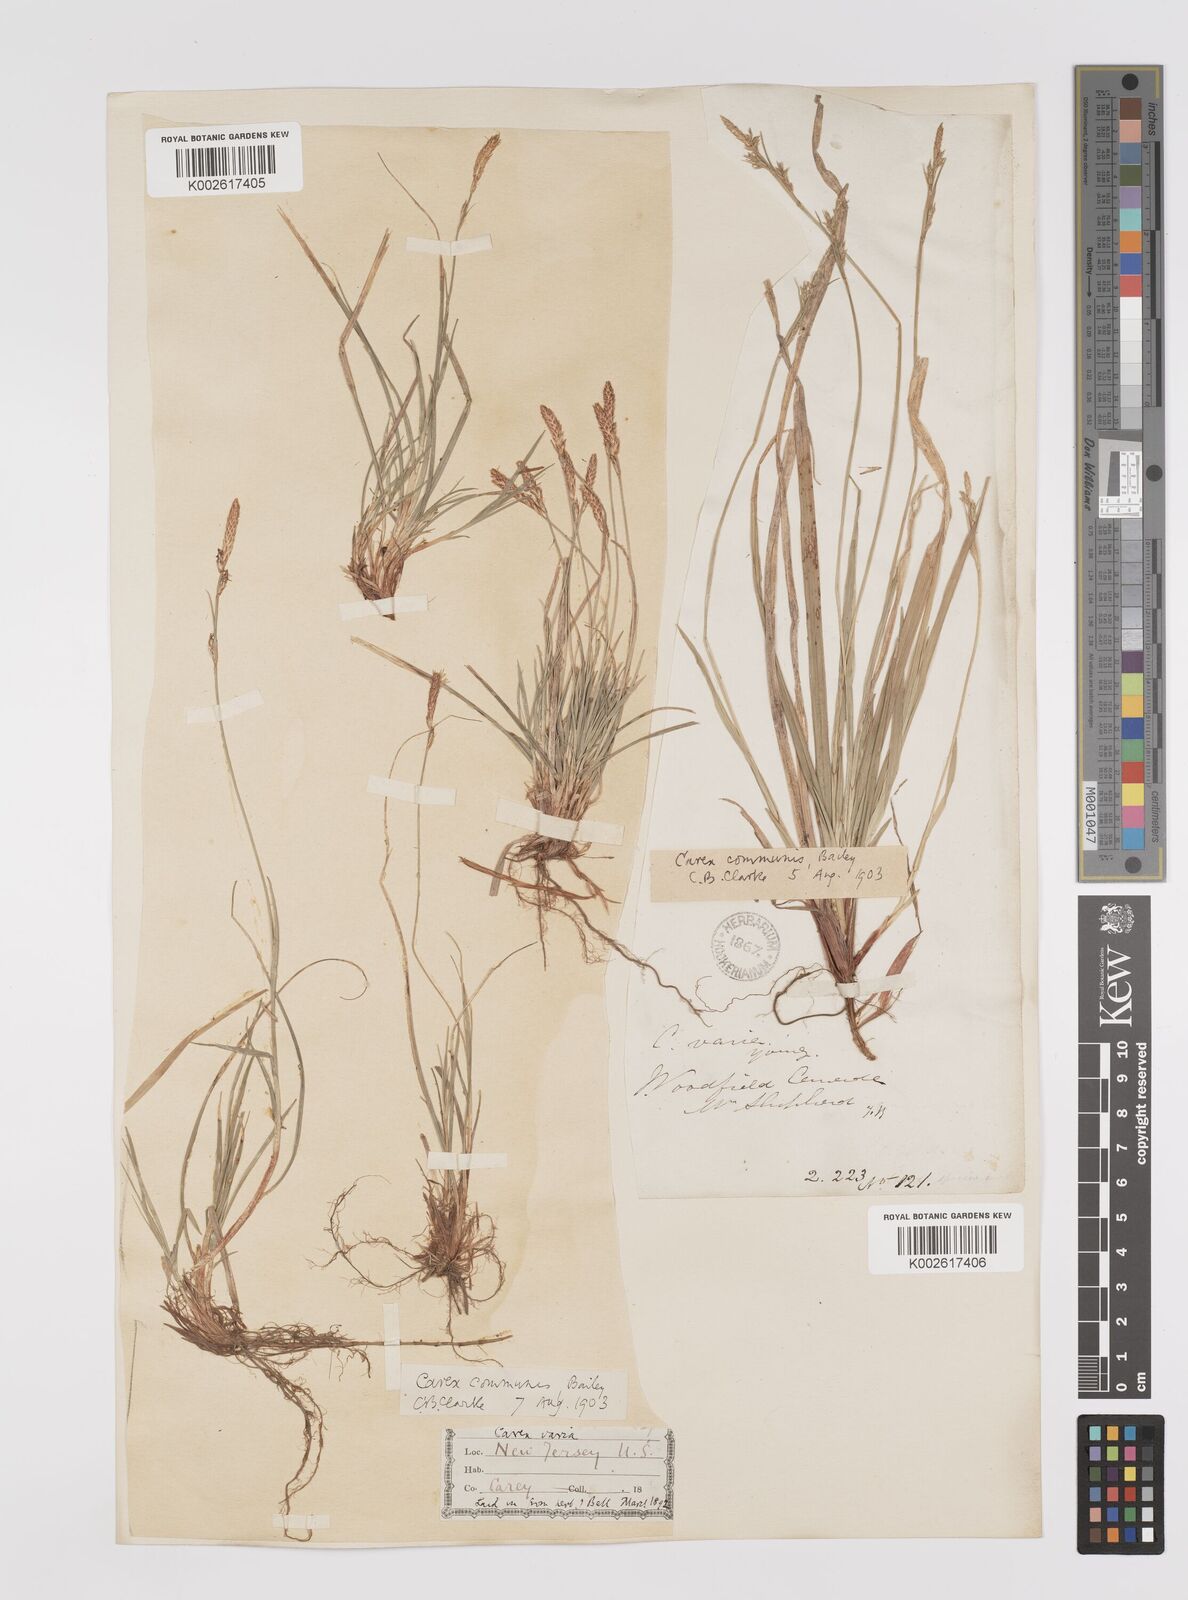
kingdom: Plantae
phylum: Tracheophyta
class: Liliopsida
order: Poales
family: Cyperaceae
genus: Carex
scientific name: Carex communis
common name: Colonial oak sedge
